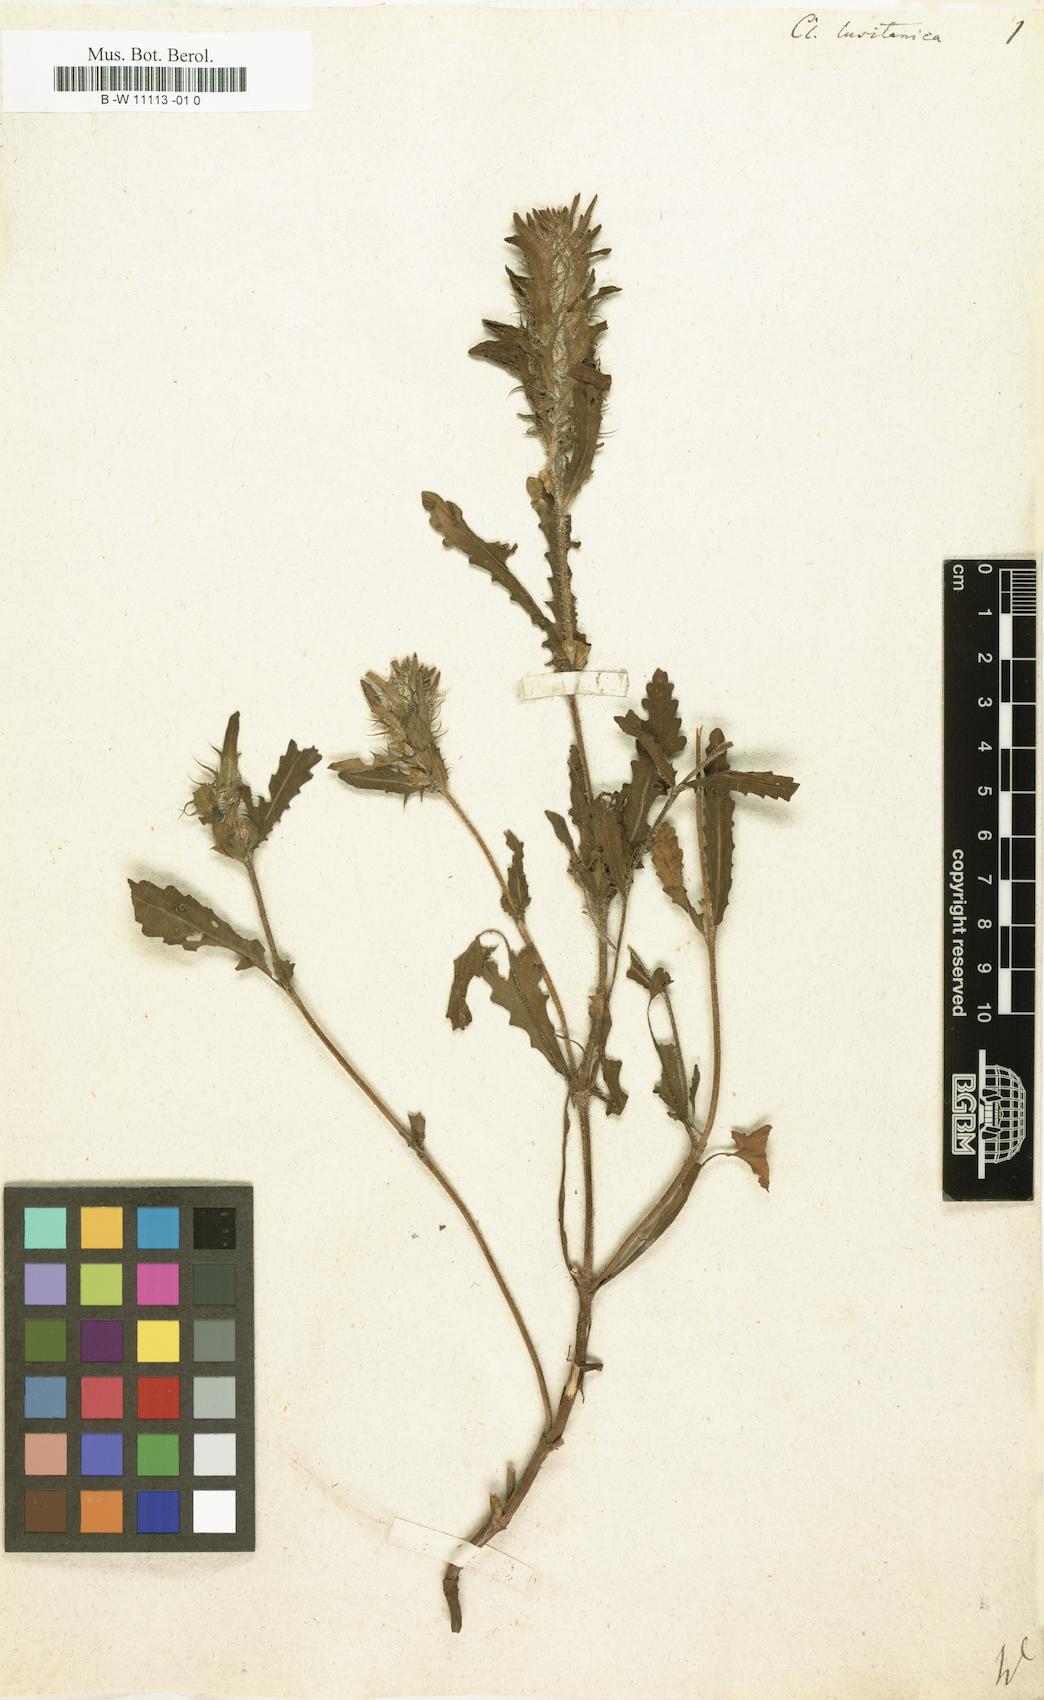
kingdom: Plantae
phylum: Tracheophyta
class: Magnoliopsida
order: Lamiales
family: Lamiaceae
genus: Cleonia
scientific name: Cleonia lusitanica
